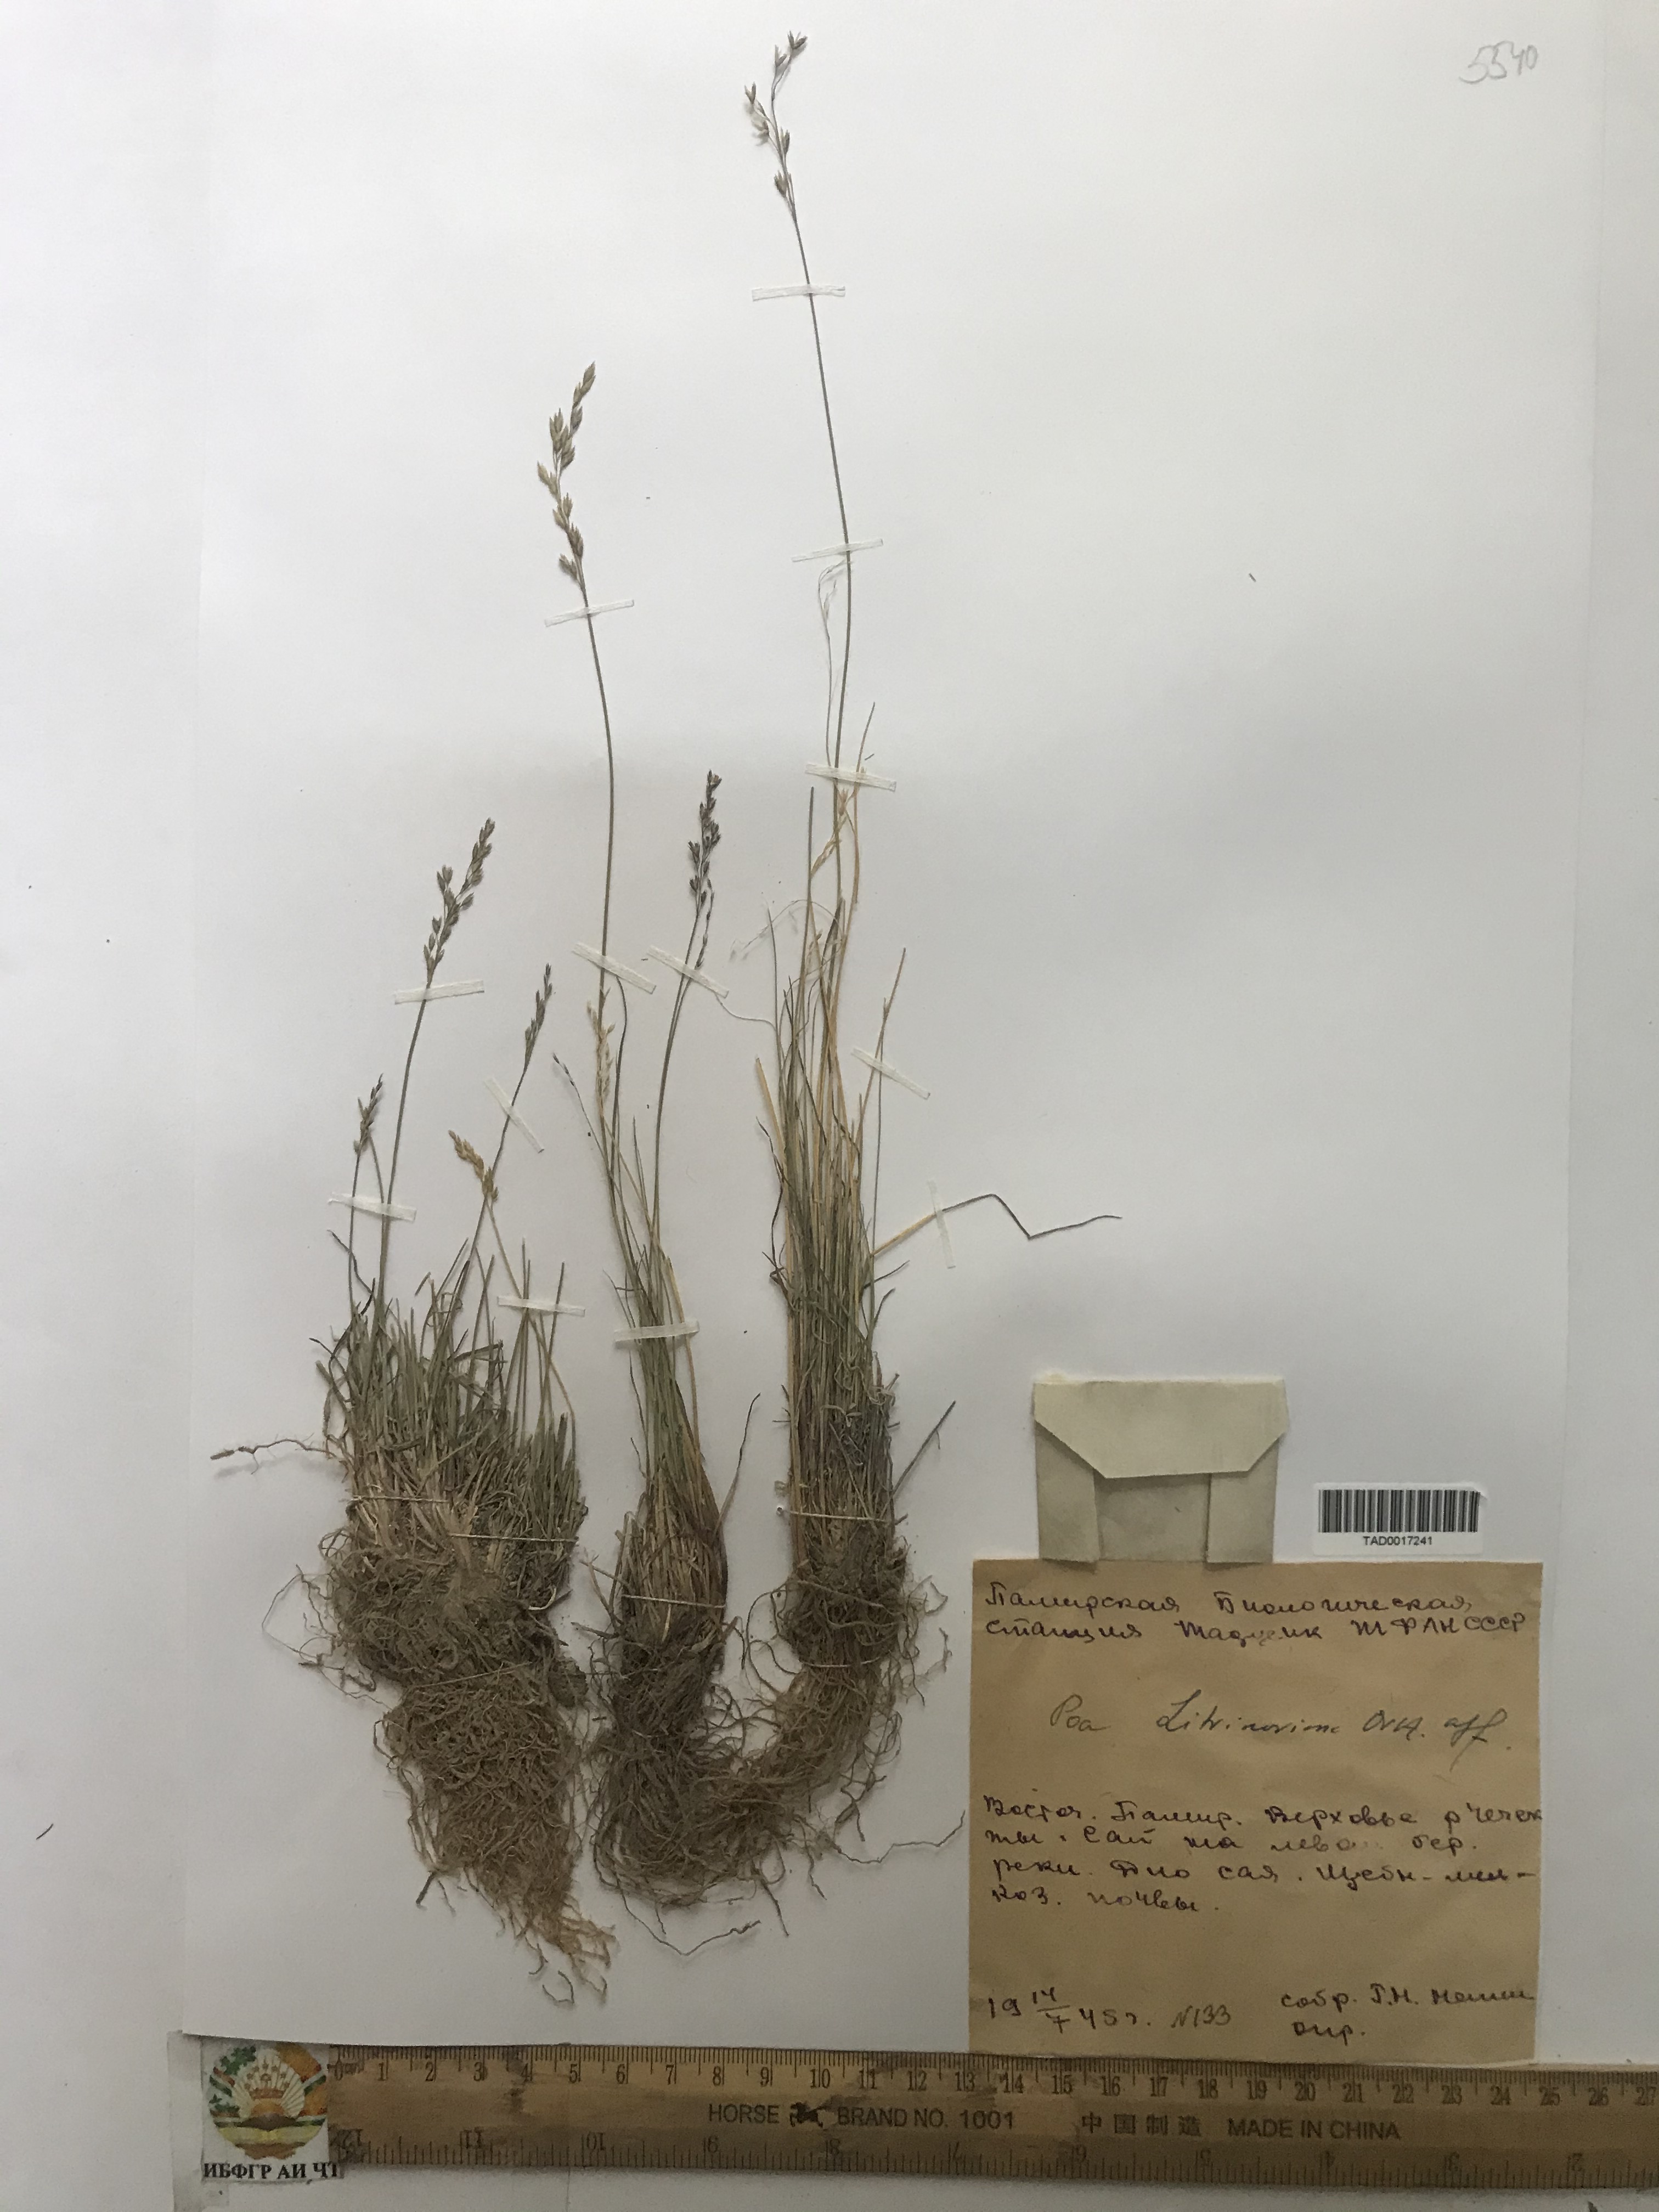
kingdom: Plantae
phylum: Tracheophyta
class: Liliopsida
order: Poales
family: Poaceae
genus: Poa
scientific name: Poa glauca
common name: Glaucous bluegrass
